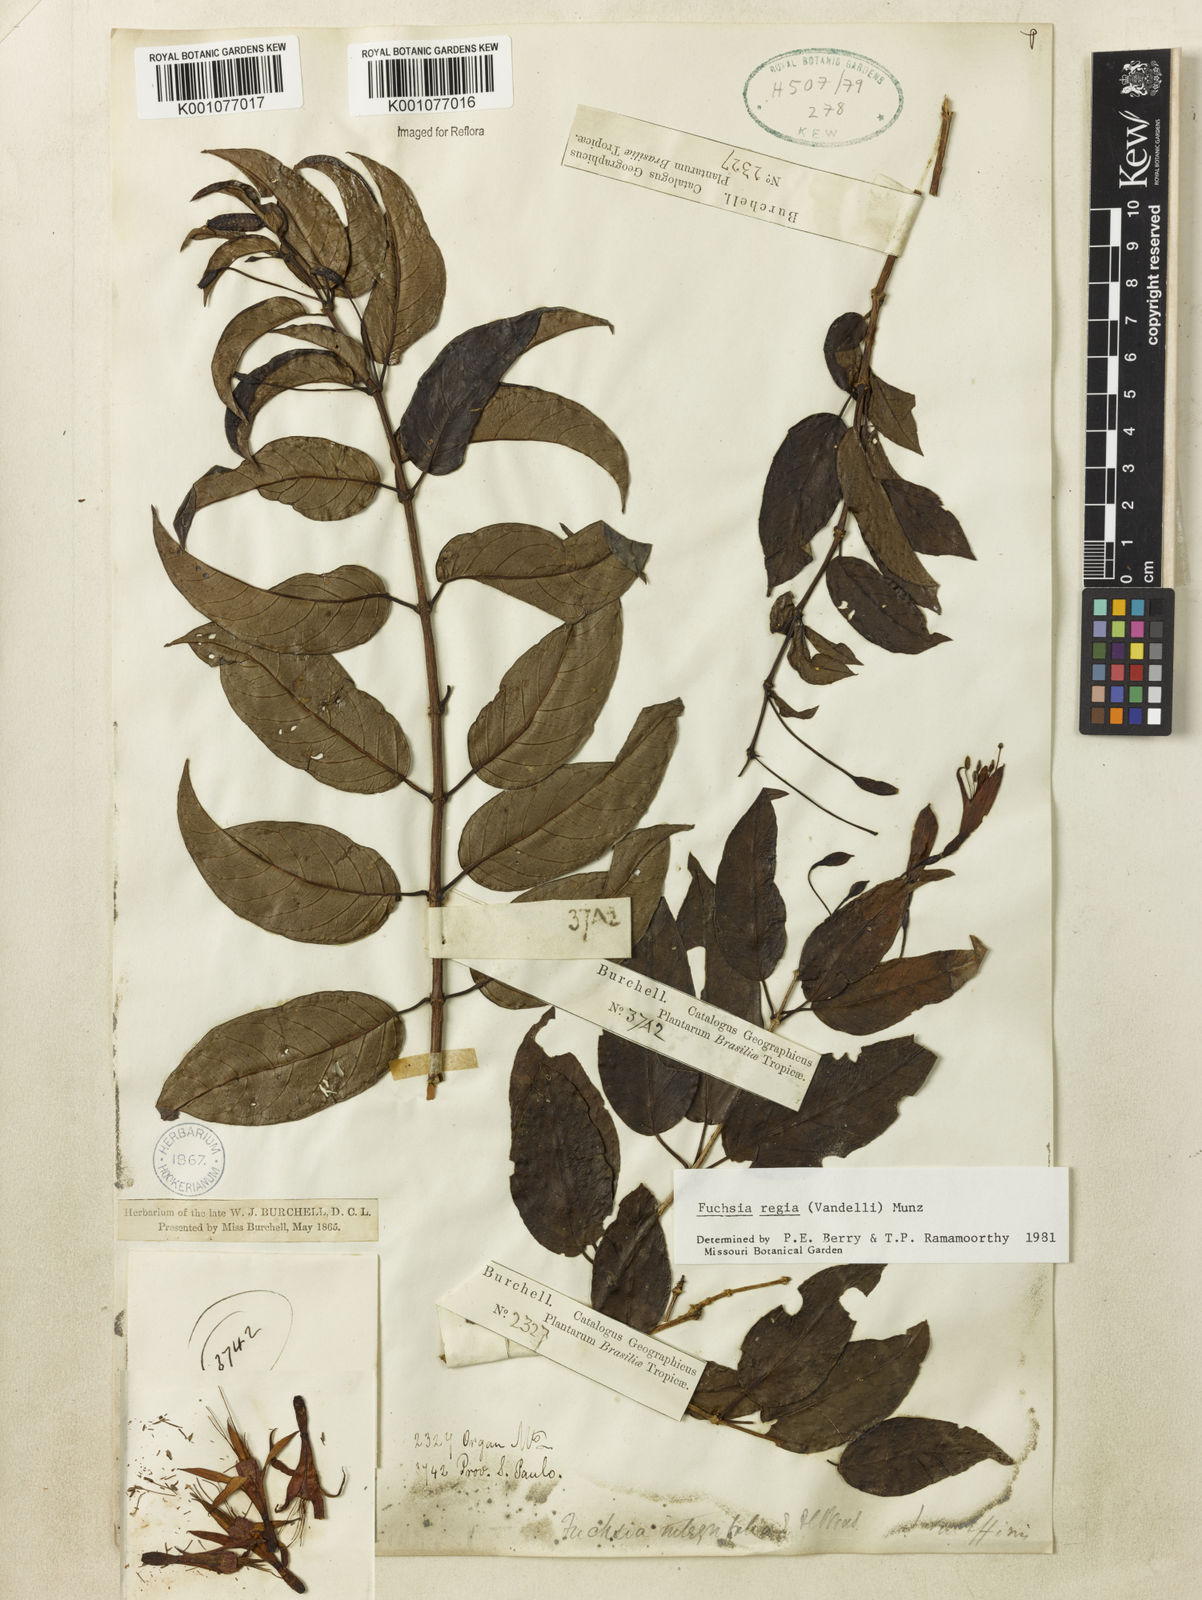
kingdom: Plantae
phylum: Tracheophyta
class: Magnoliopsida
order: Myrtales
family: Onagraceae
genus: Fuchsia
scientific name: Fuchsia regia
